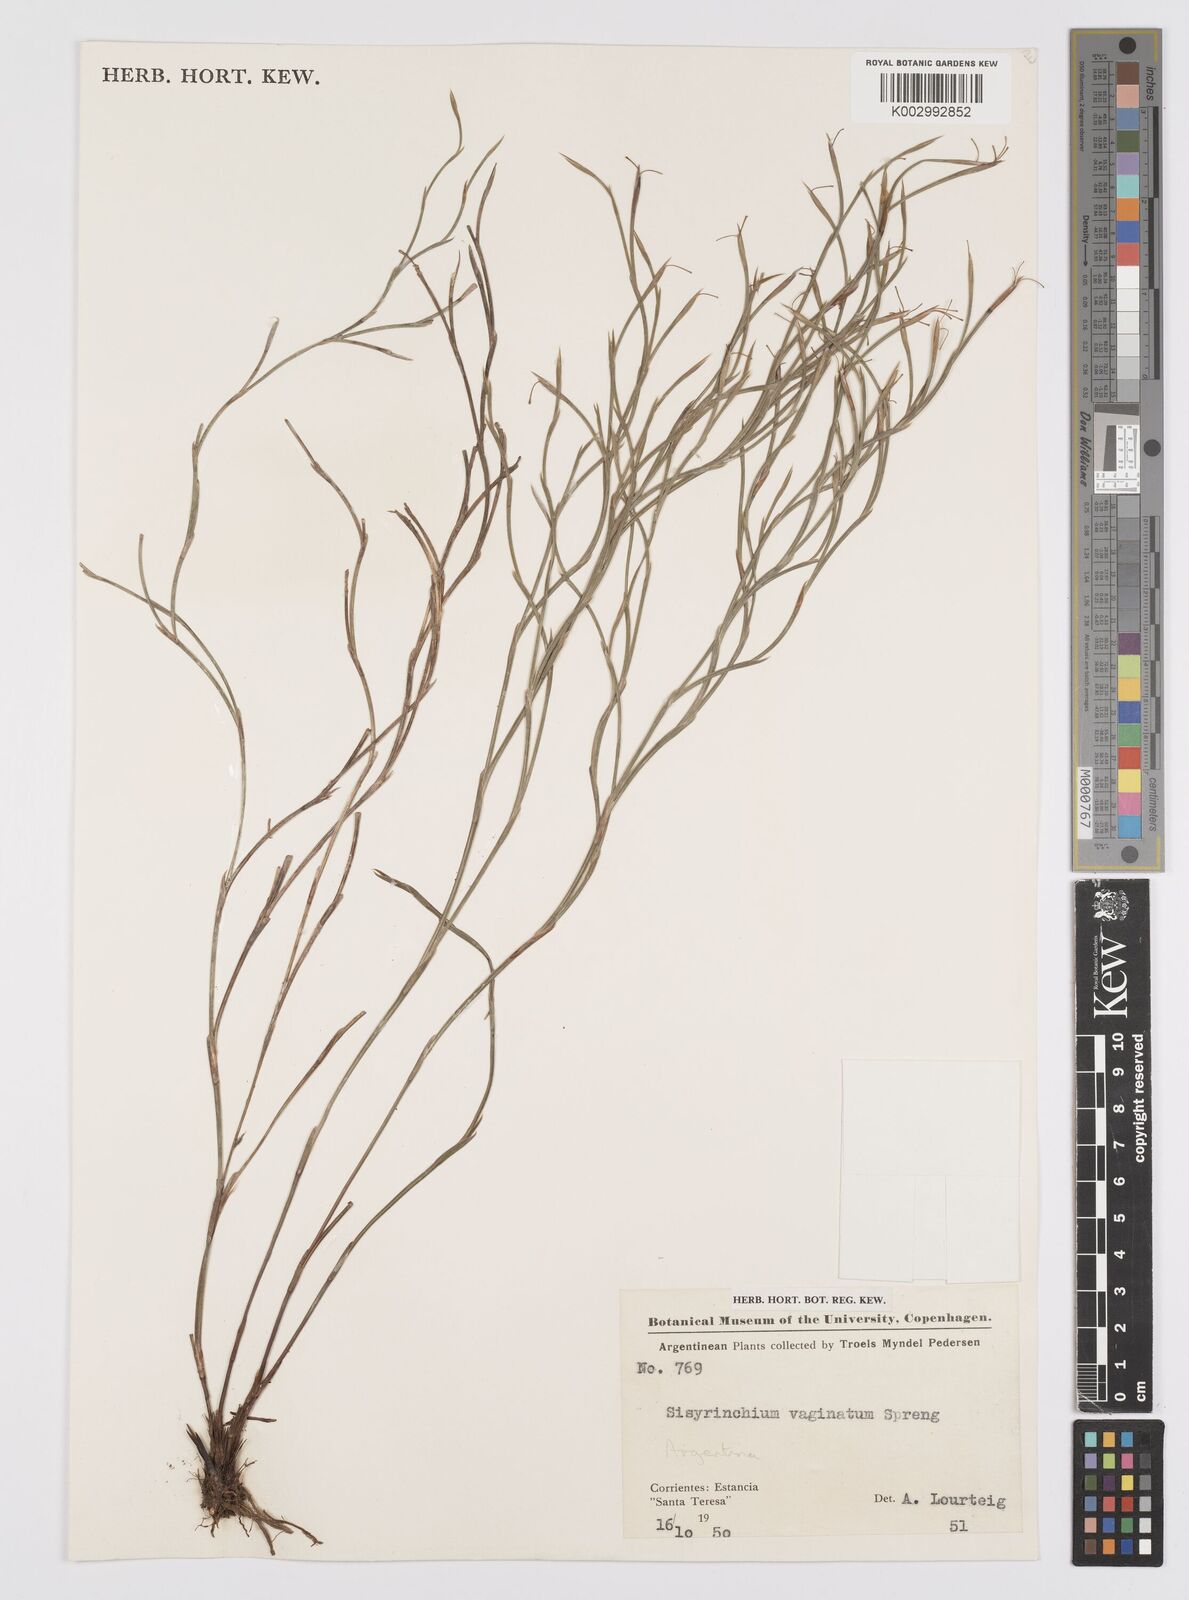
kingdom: Plantae
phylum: Tracheophyta
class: Liliopsida
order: Asparagales
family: Iridaceae
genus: Sisyrinchium
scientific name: Sisyrinchium vaginatum
